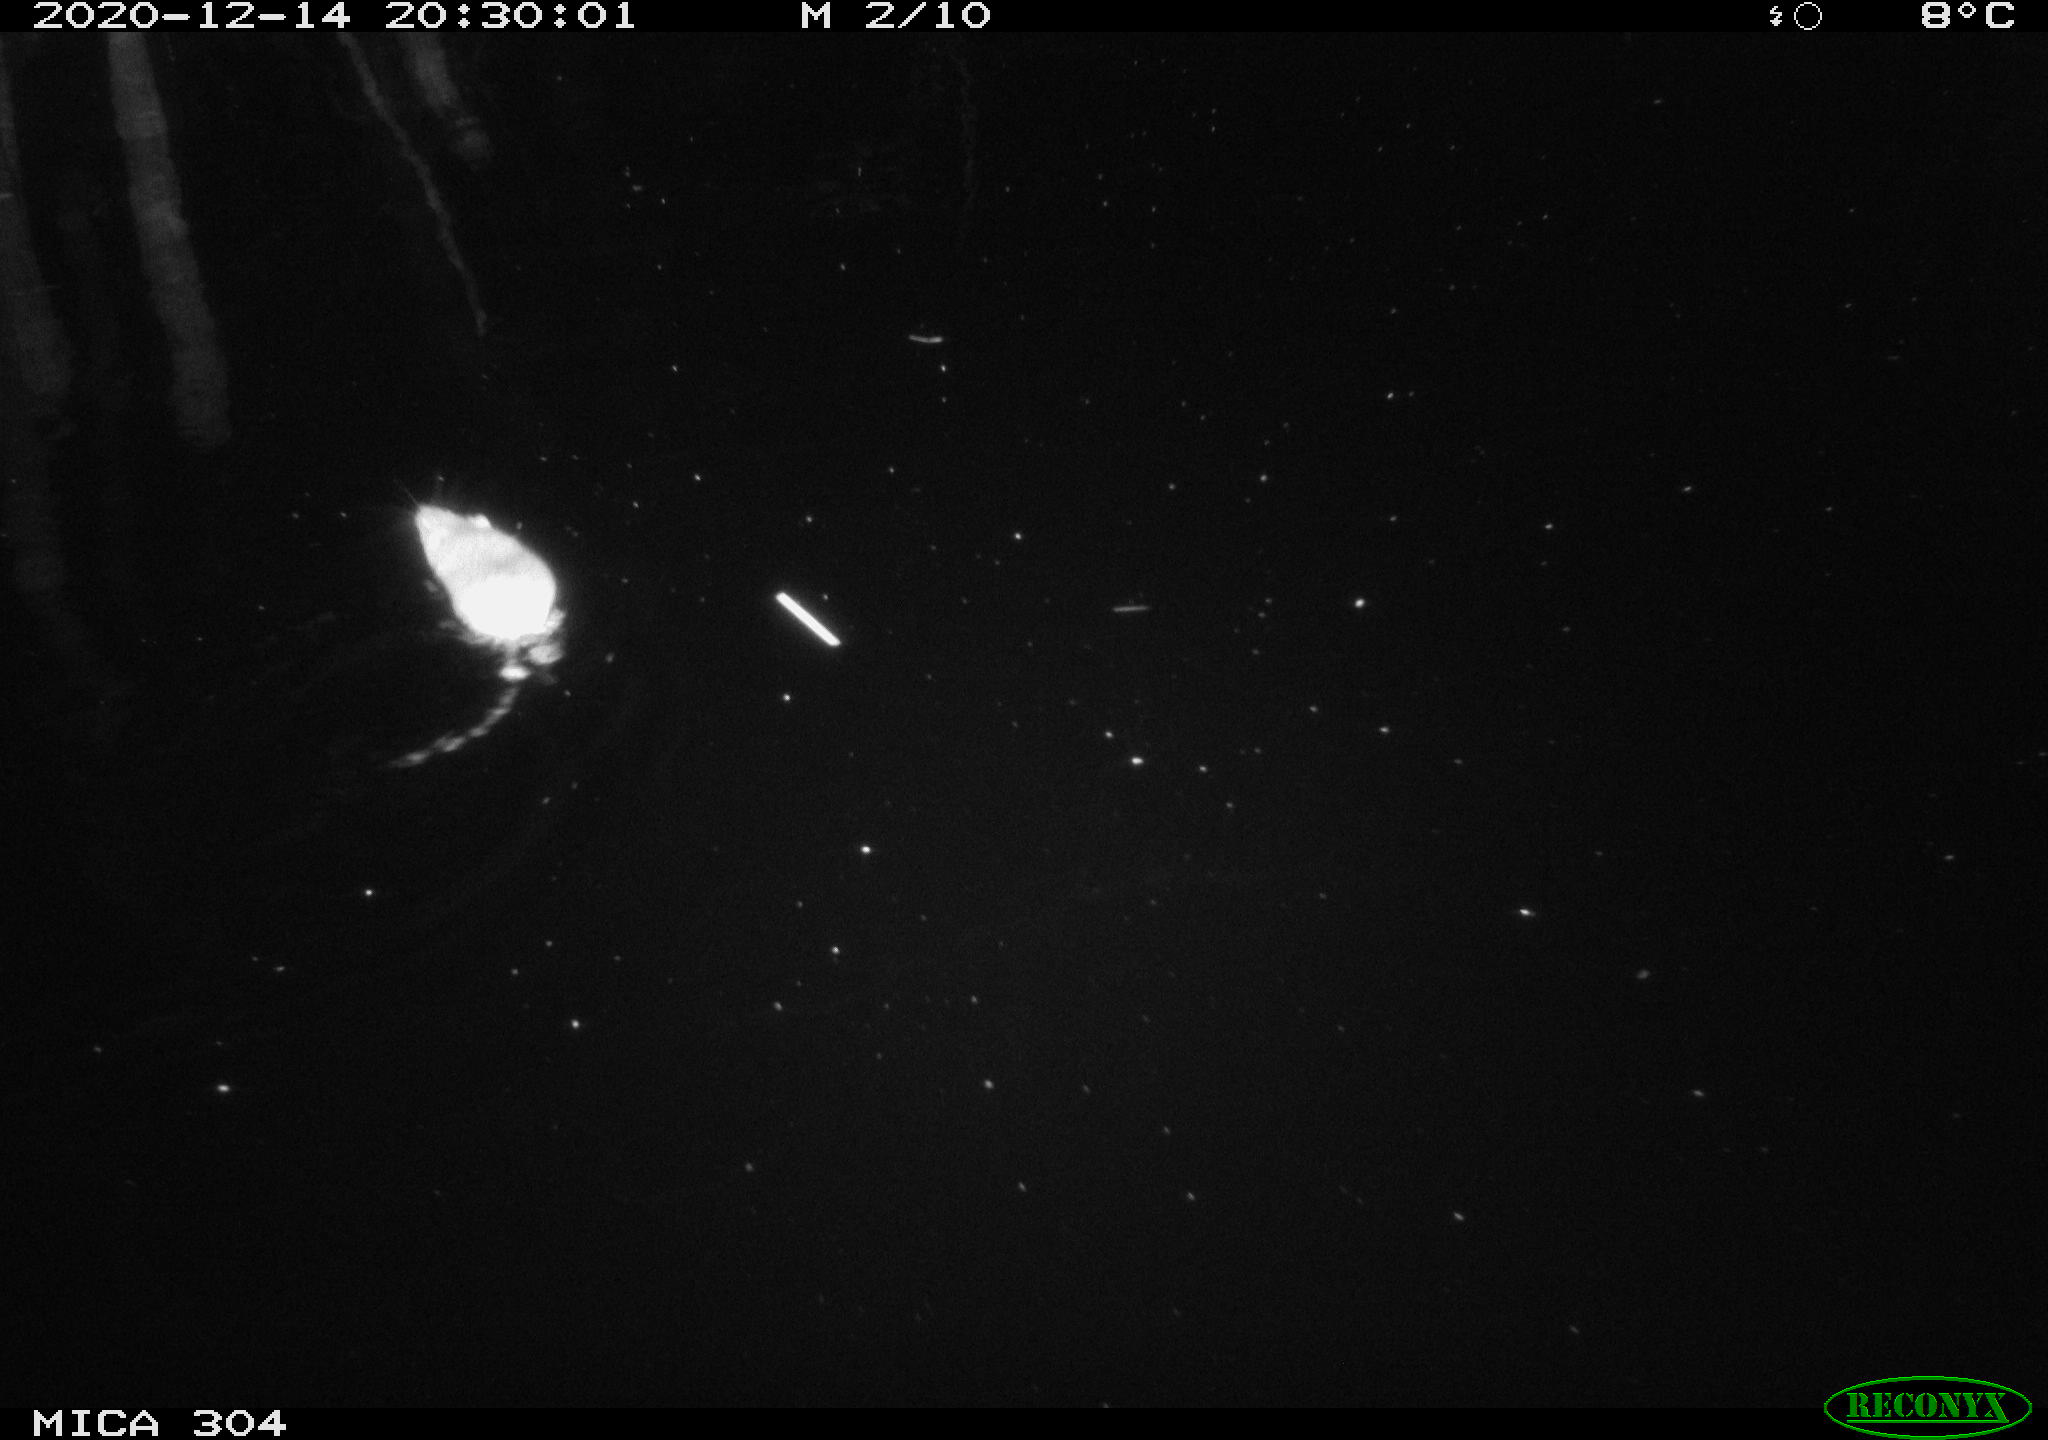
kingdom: Animalia
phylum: Chordata
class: Mammalia
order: Rodentia
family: Muridae
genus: Rattus
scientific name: Rattus norvegicus
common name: Brown rat
